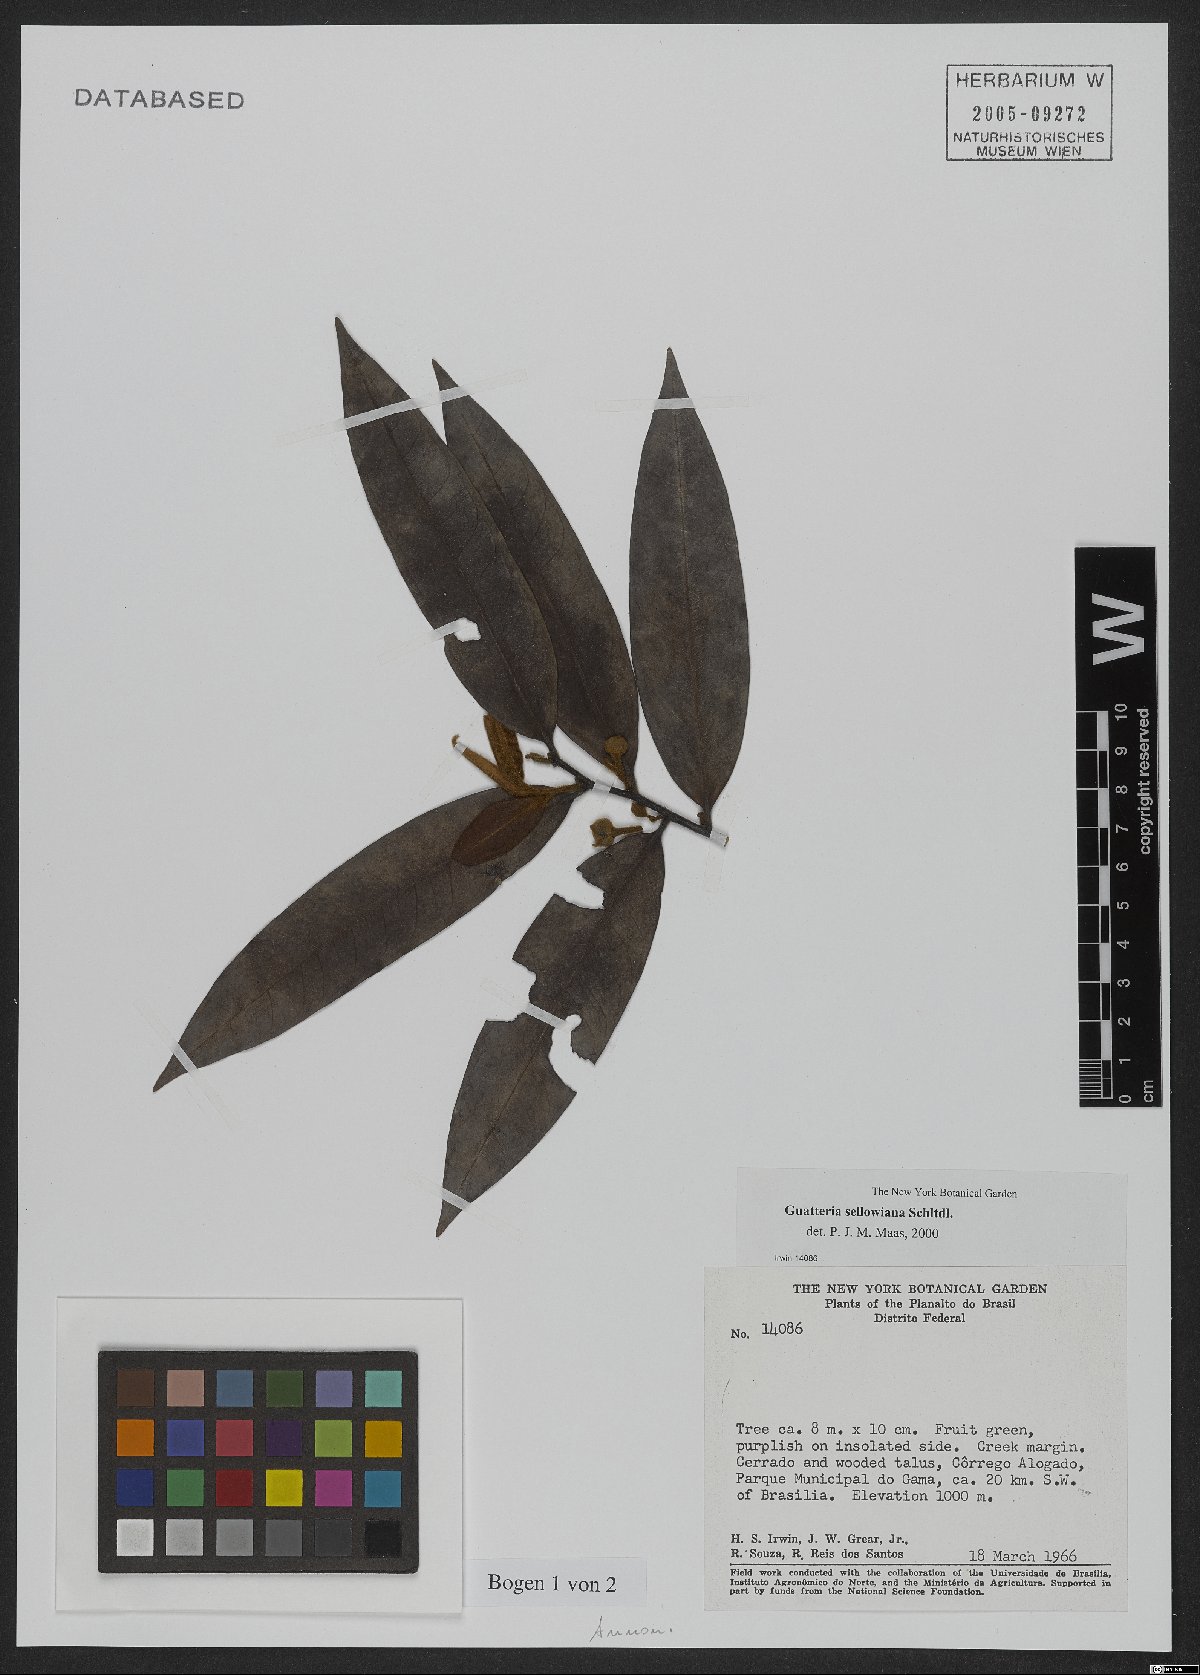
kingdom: Plantae
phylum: Tracheophyta
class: Magnoliopsida
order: Magnoliales
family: Annonaceae
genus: Guatteria
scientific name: Guatteria sellowiana
